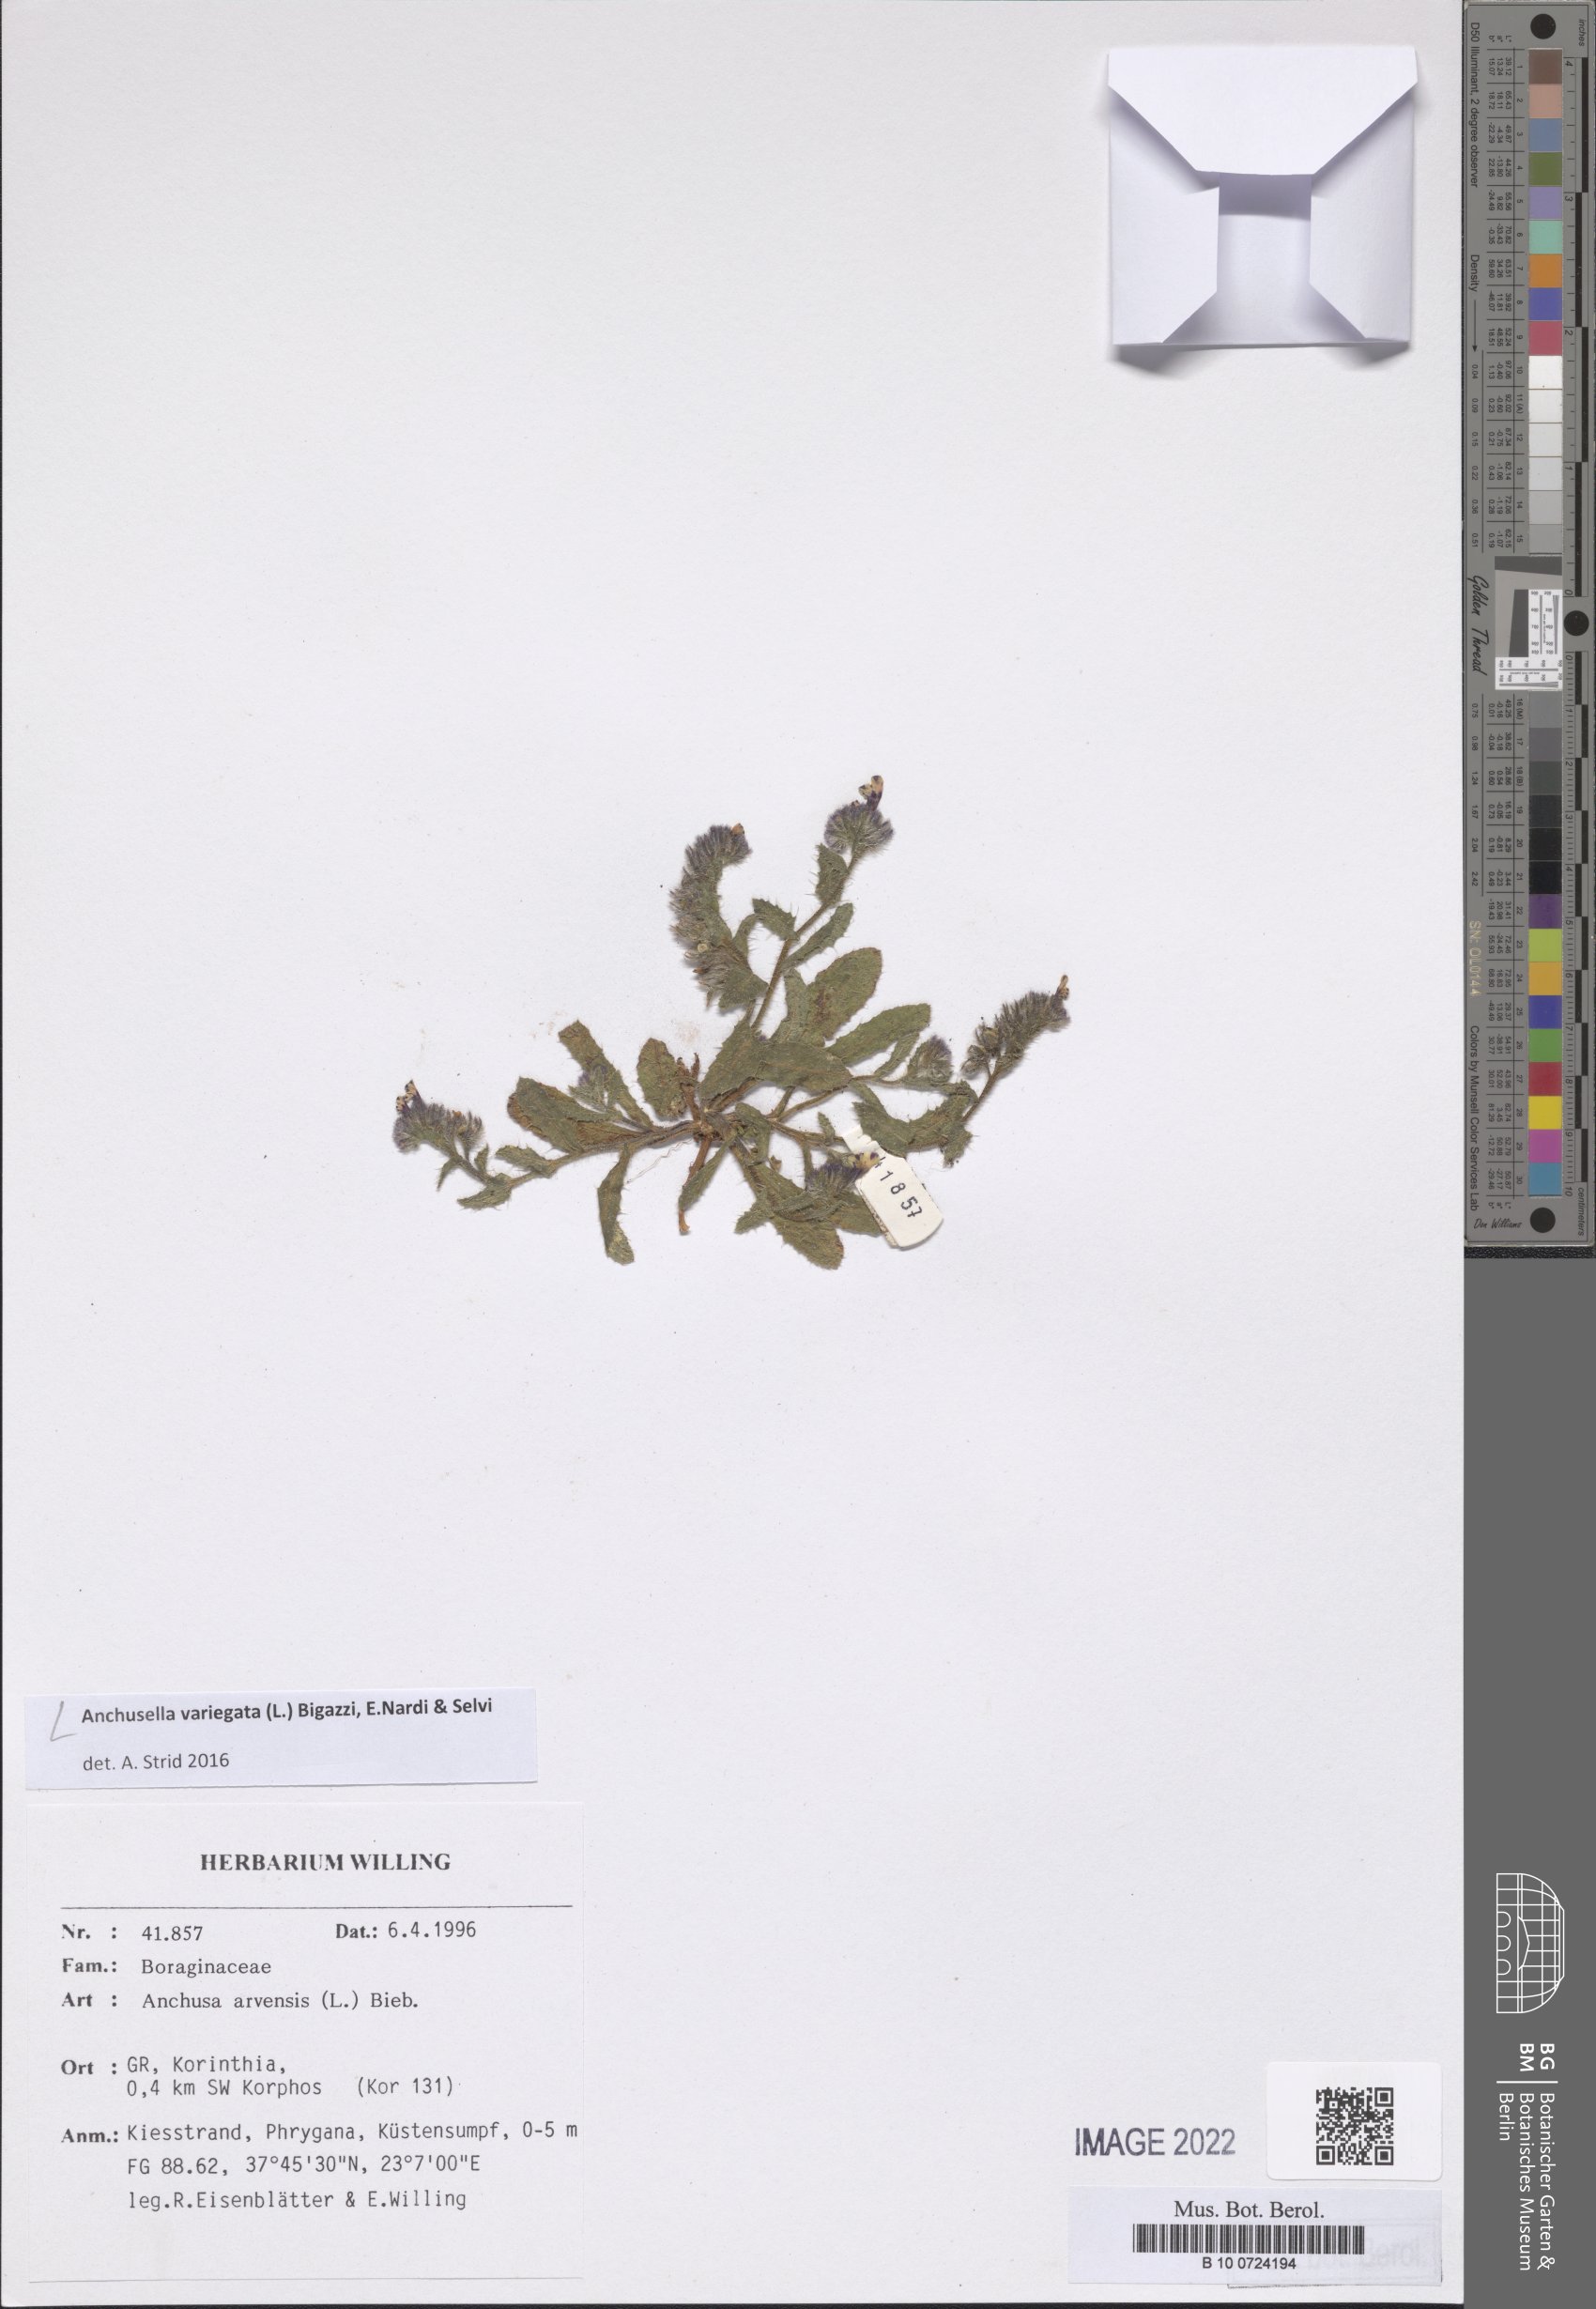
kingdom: Plantae
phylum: Tracheophyta
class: Magnoliopsida
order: Boraginales
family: Boraginaceae
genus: Anchusella
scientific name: Anchusella variegata
